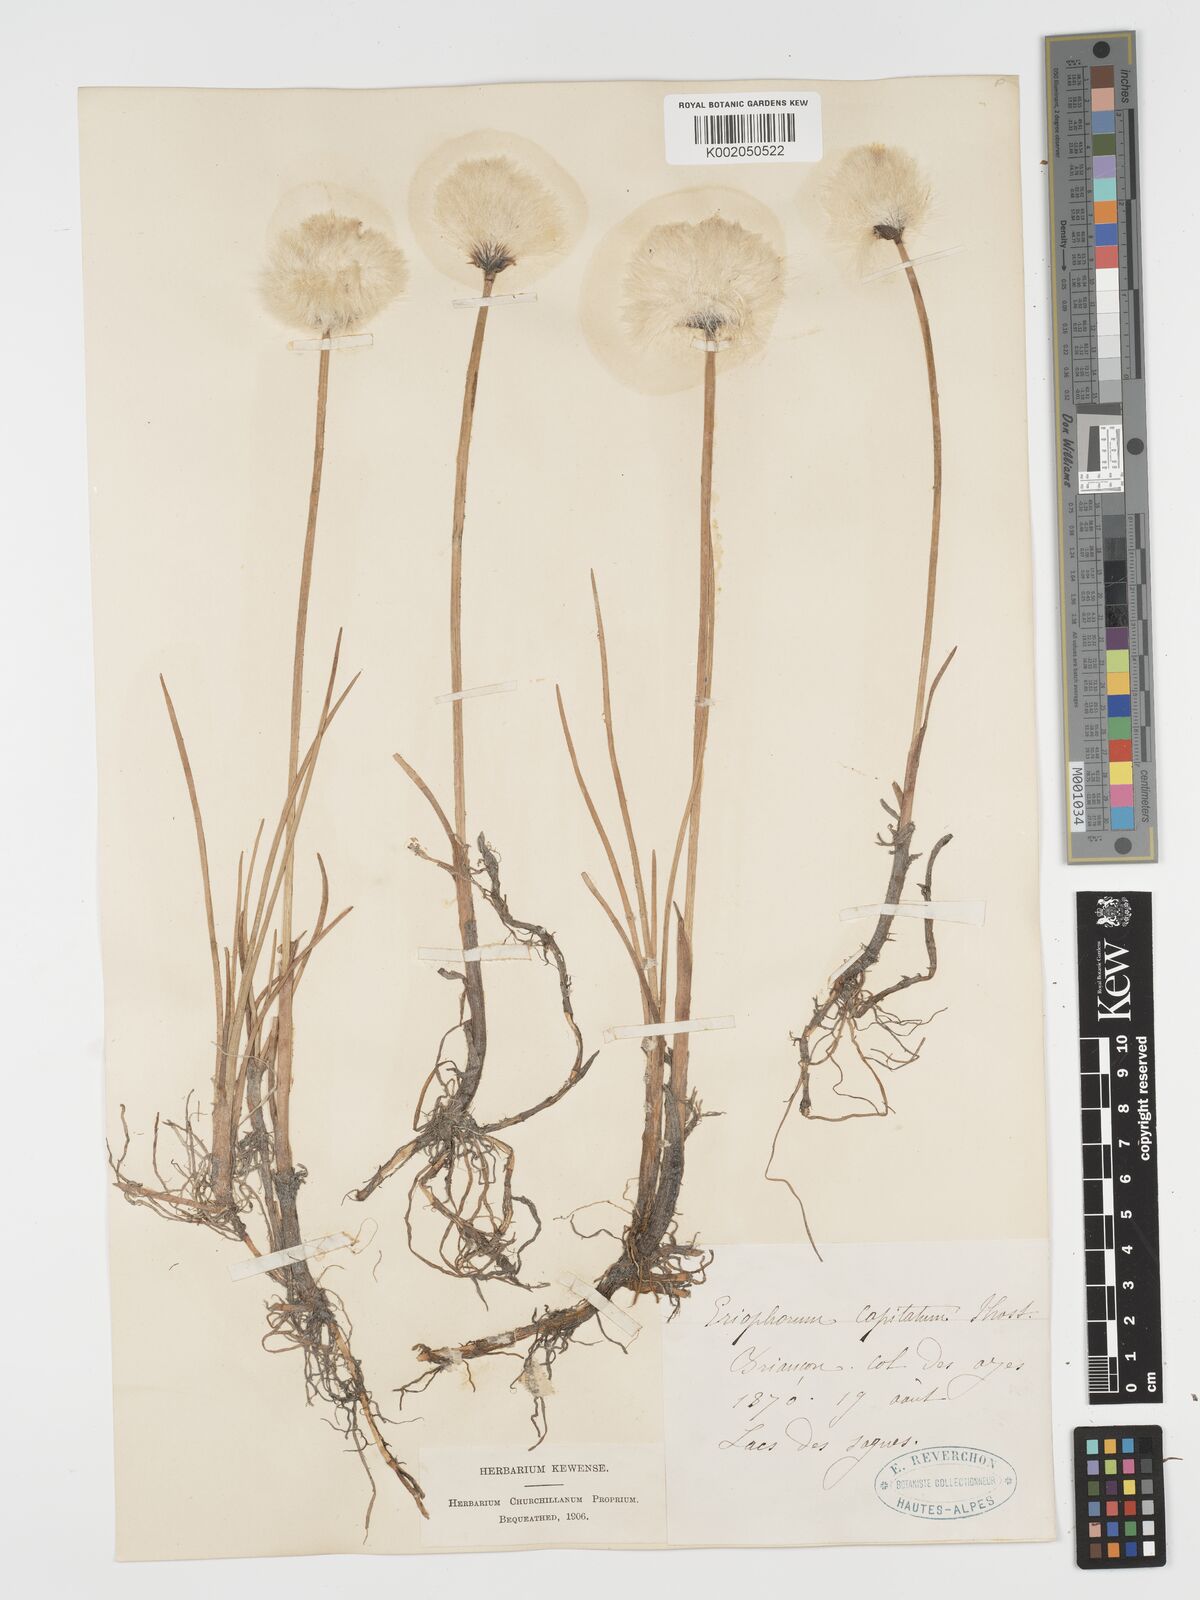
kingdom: Plantae
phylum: Tracheophyta
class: Liliopsida
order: Poales
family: Cyperaceae
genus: Eriophorum
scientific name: Eriophorum scheuchzeri
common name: Scheuchzer's cottongrass
